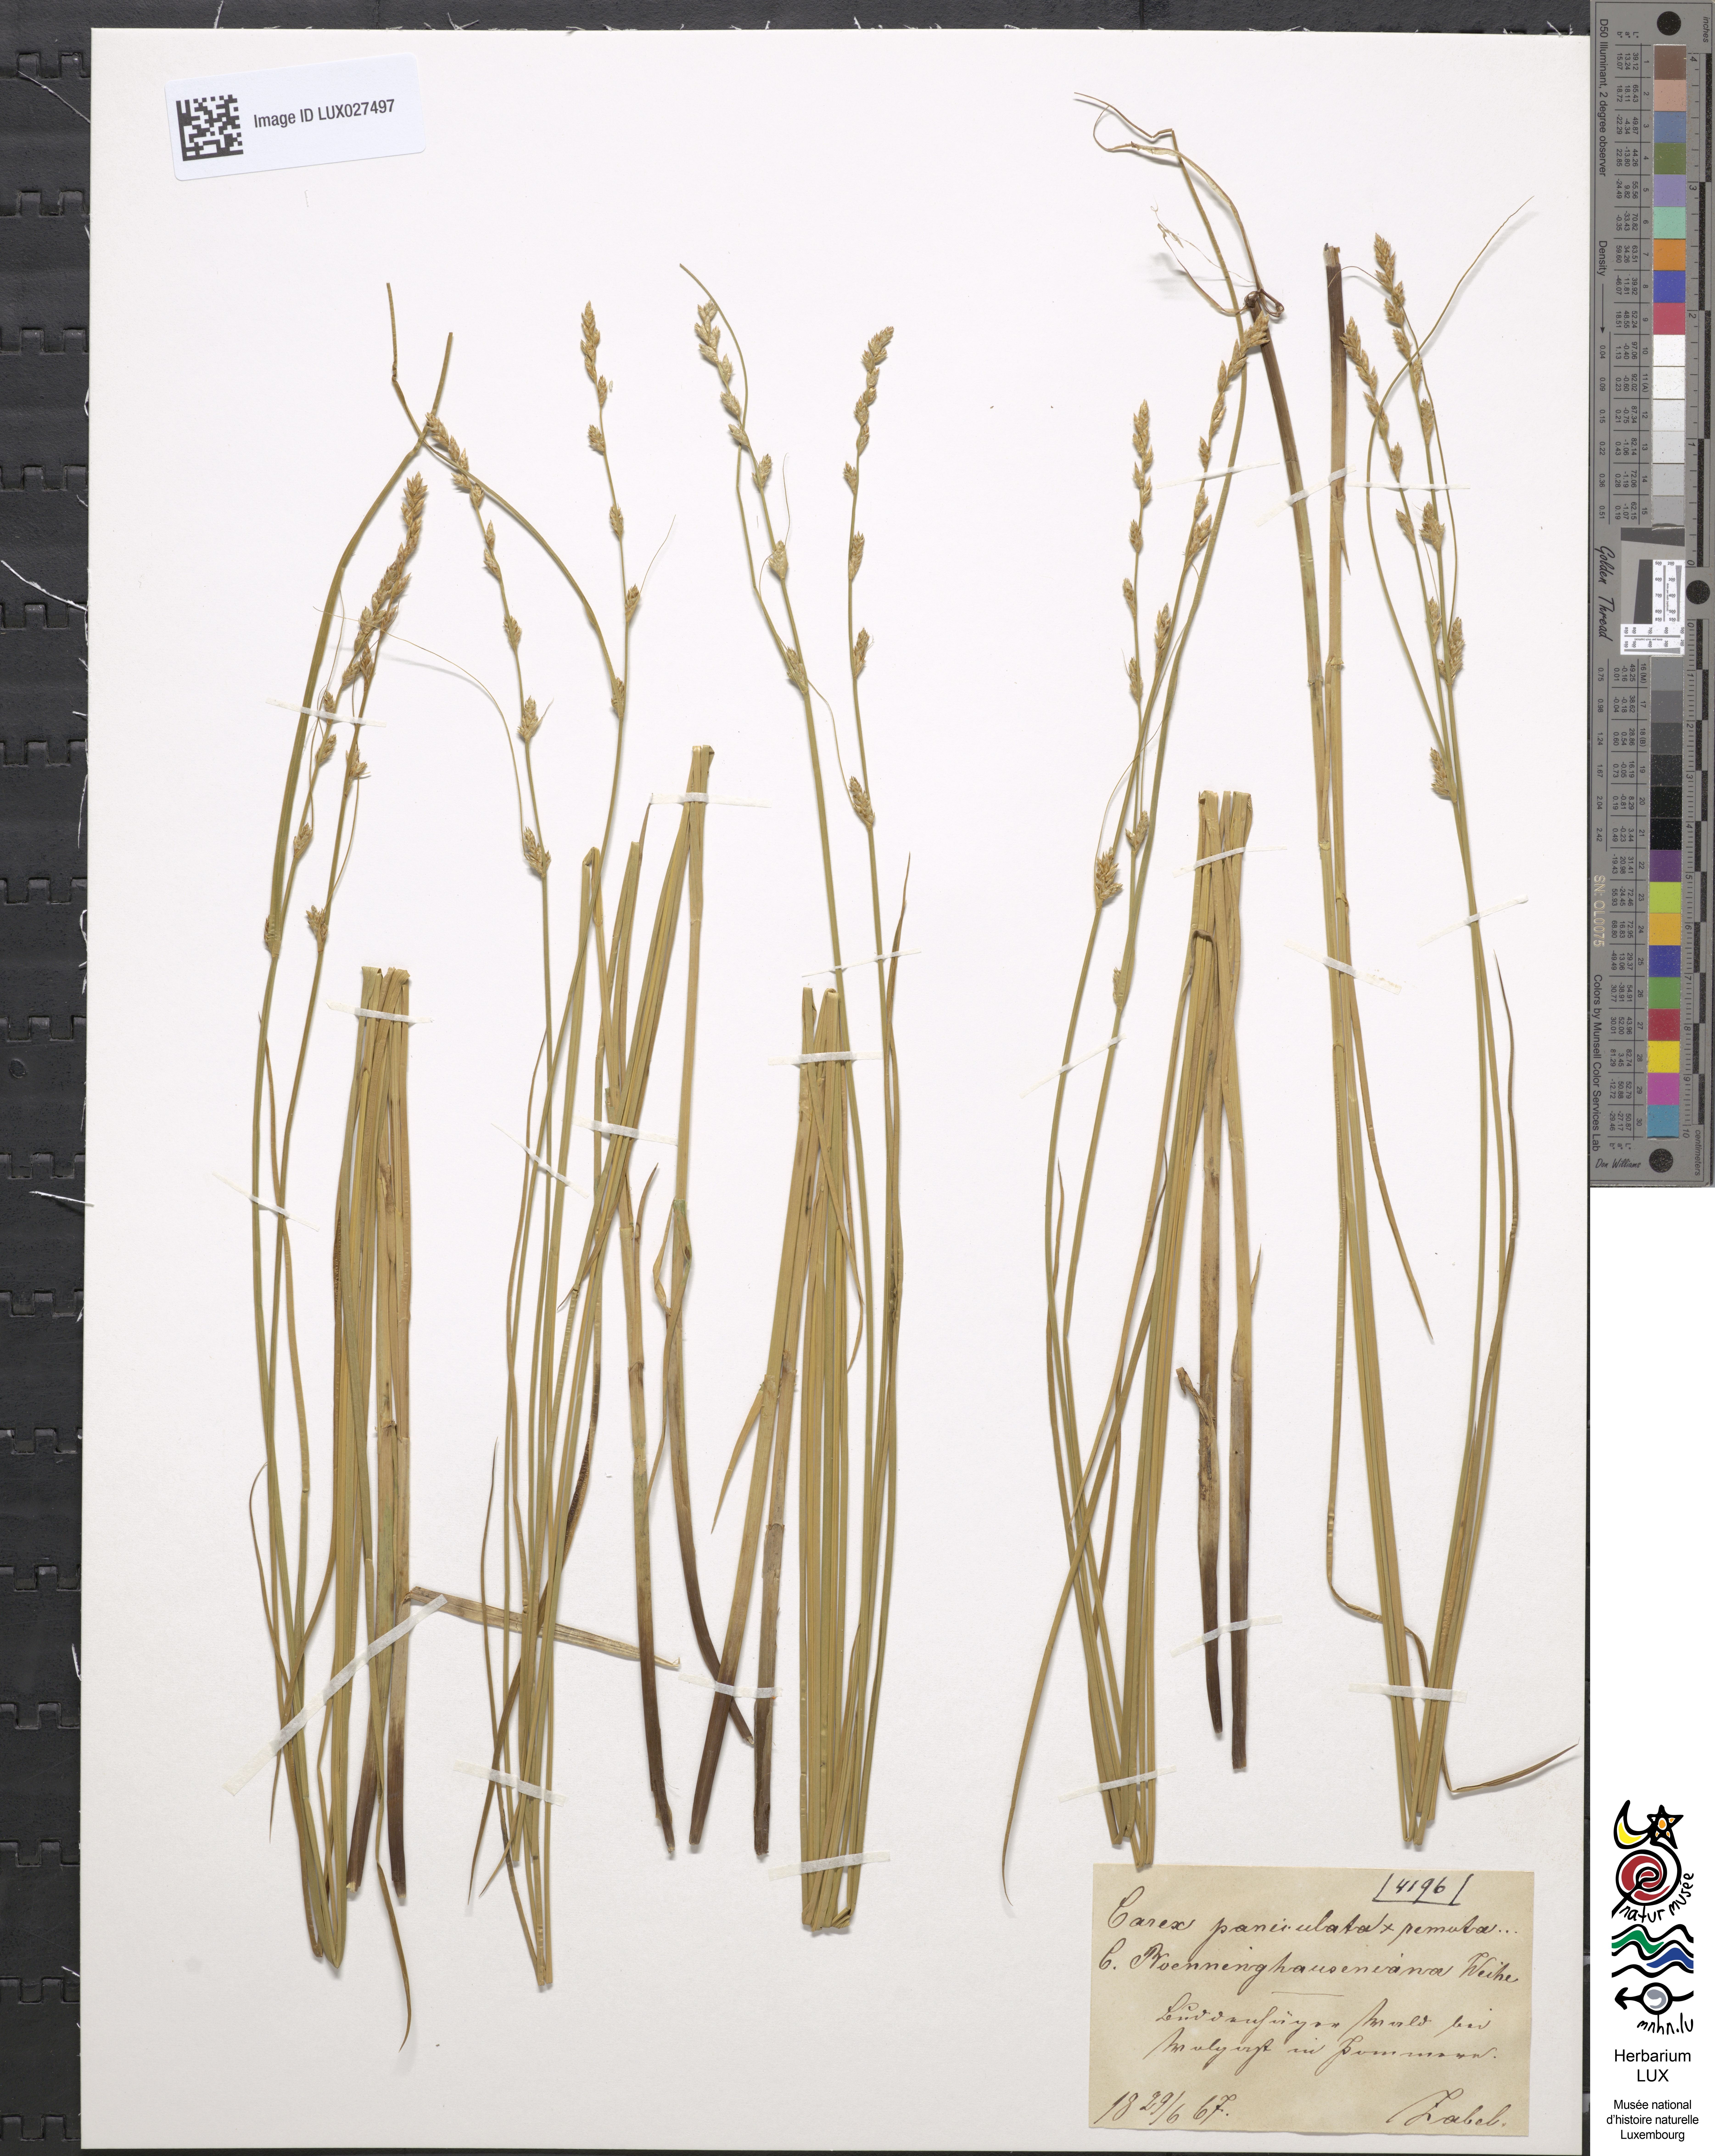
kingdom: Plantae
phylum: Tracheophyta
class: Liliopsida
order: Poales
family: Cyperaceae
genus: Carex
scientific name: Carex boenninghausiana
